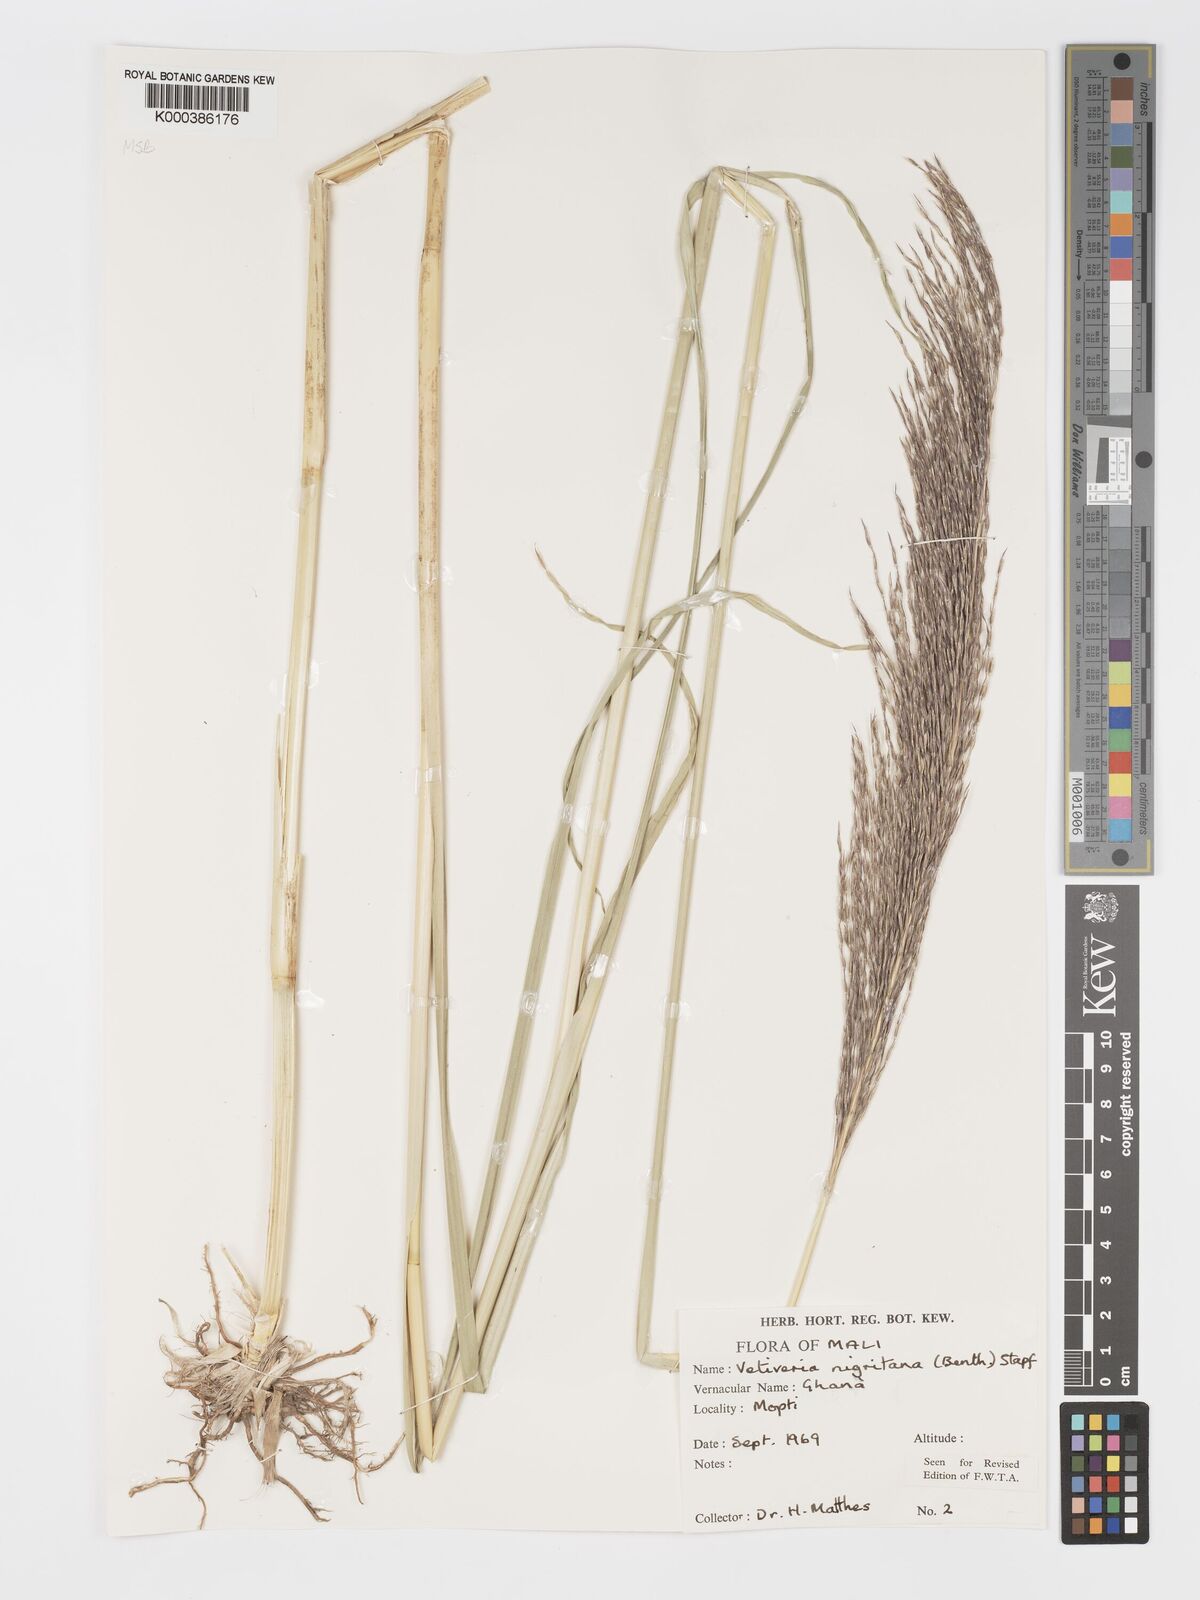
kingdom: Plantae
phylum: Tracheophyta
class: Liliopsida
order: Poales
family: Poaceae
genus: Chrysopogon
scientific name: Chrysopogon nigritanus
